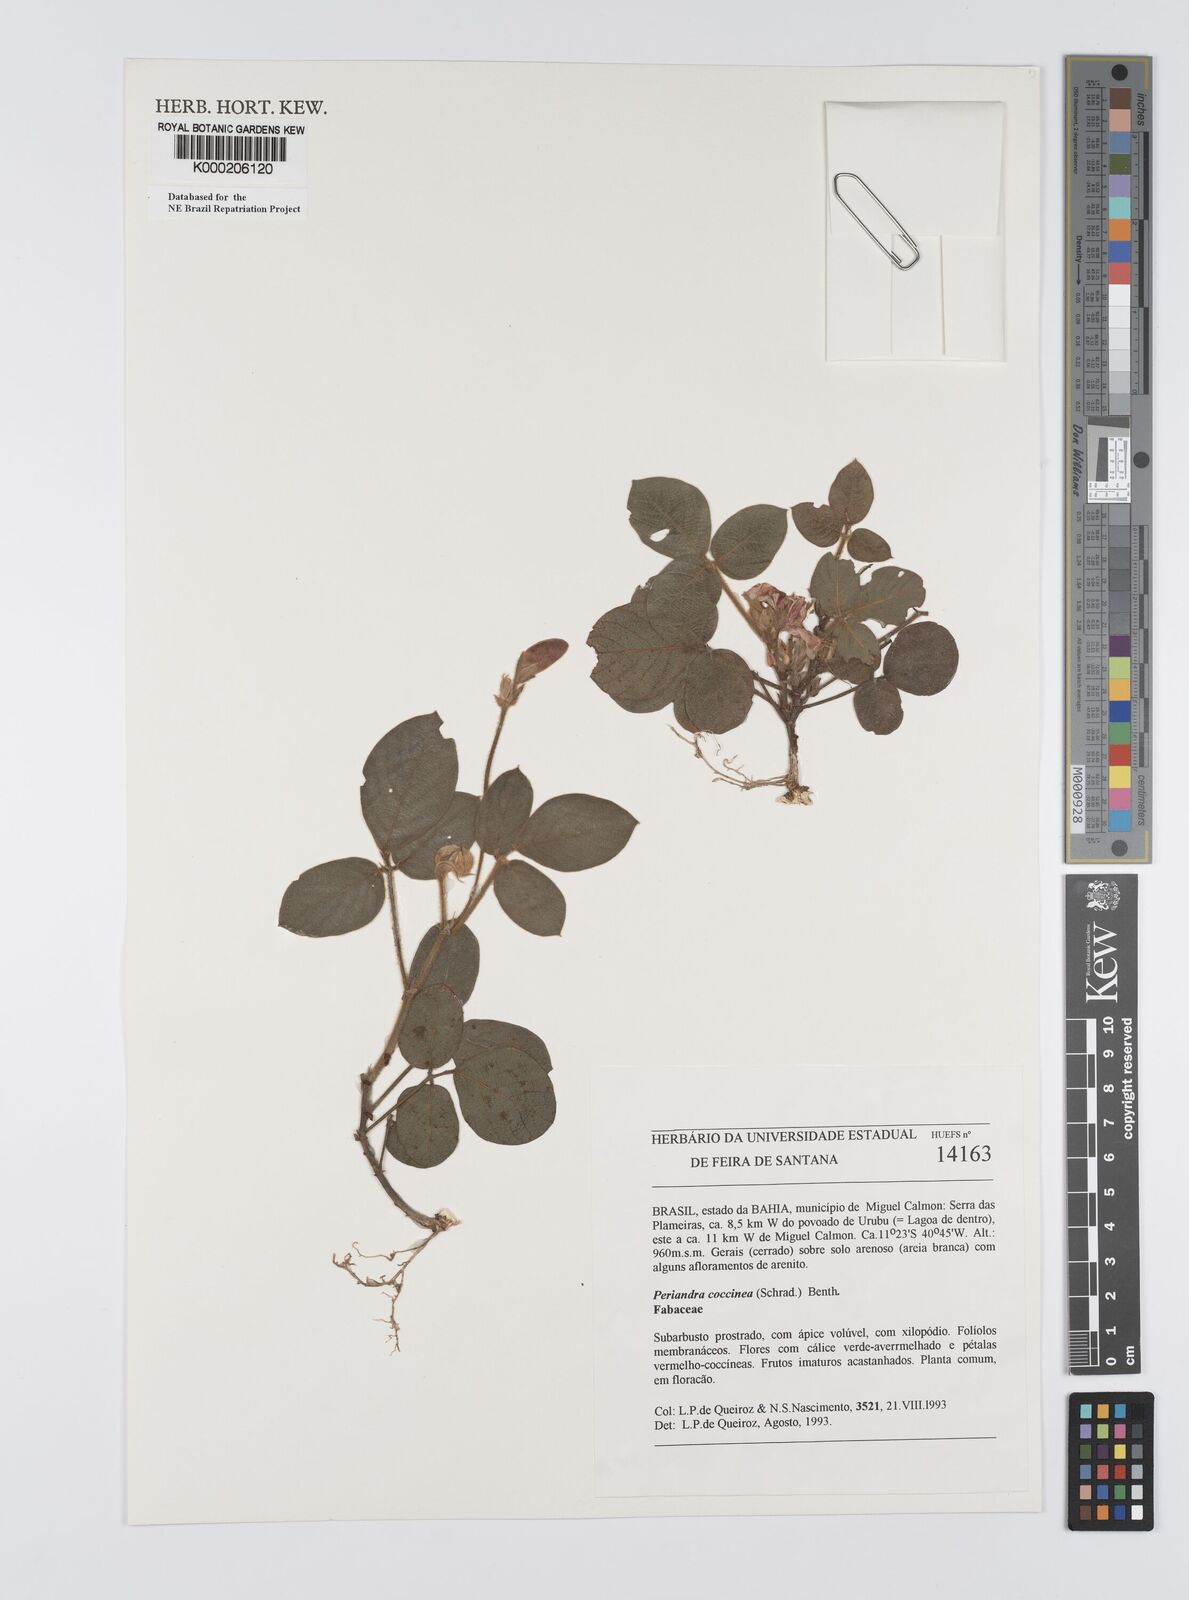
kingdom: Plantae
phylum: Tracheophyta
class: Magnoliopsida
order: Fabales
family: Fabaceae
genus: Periandra
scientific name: Periandra coccinea
